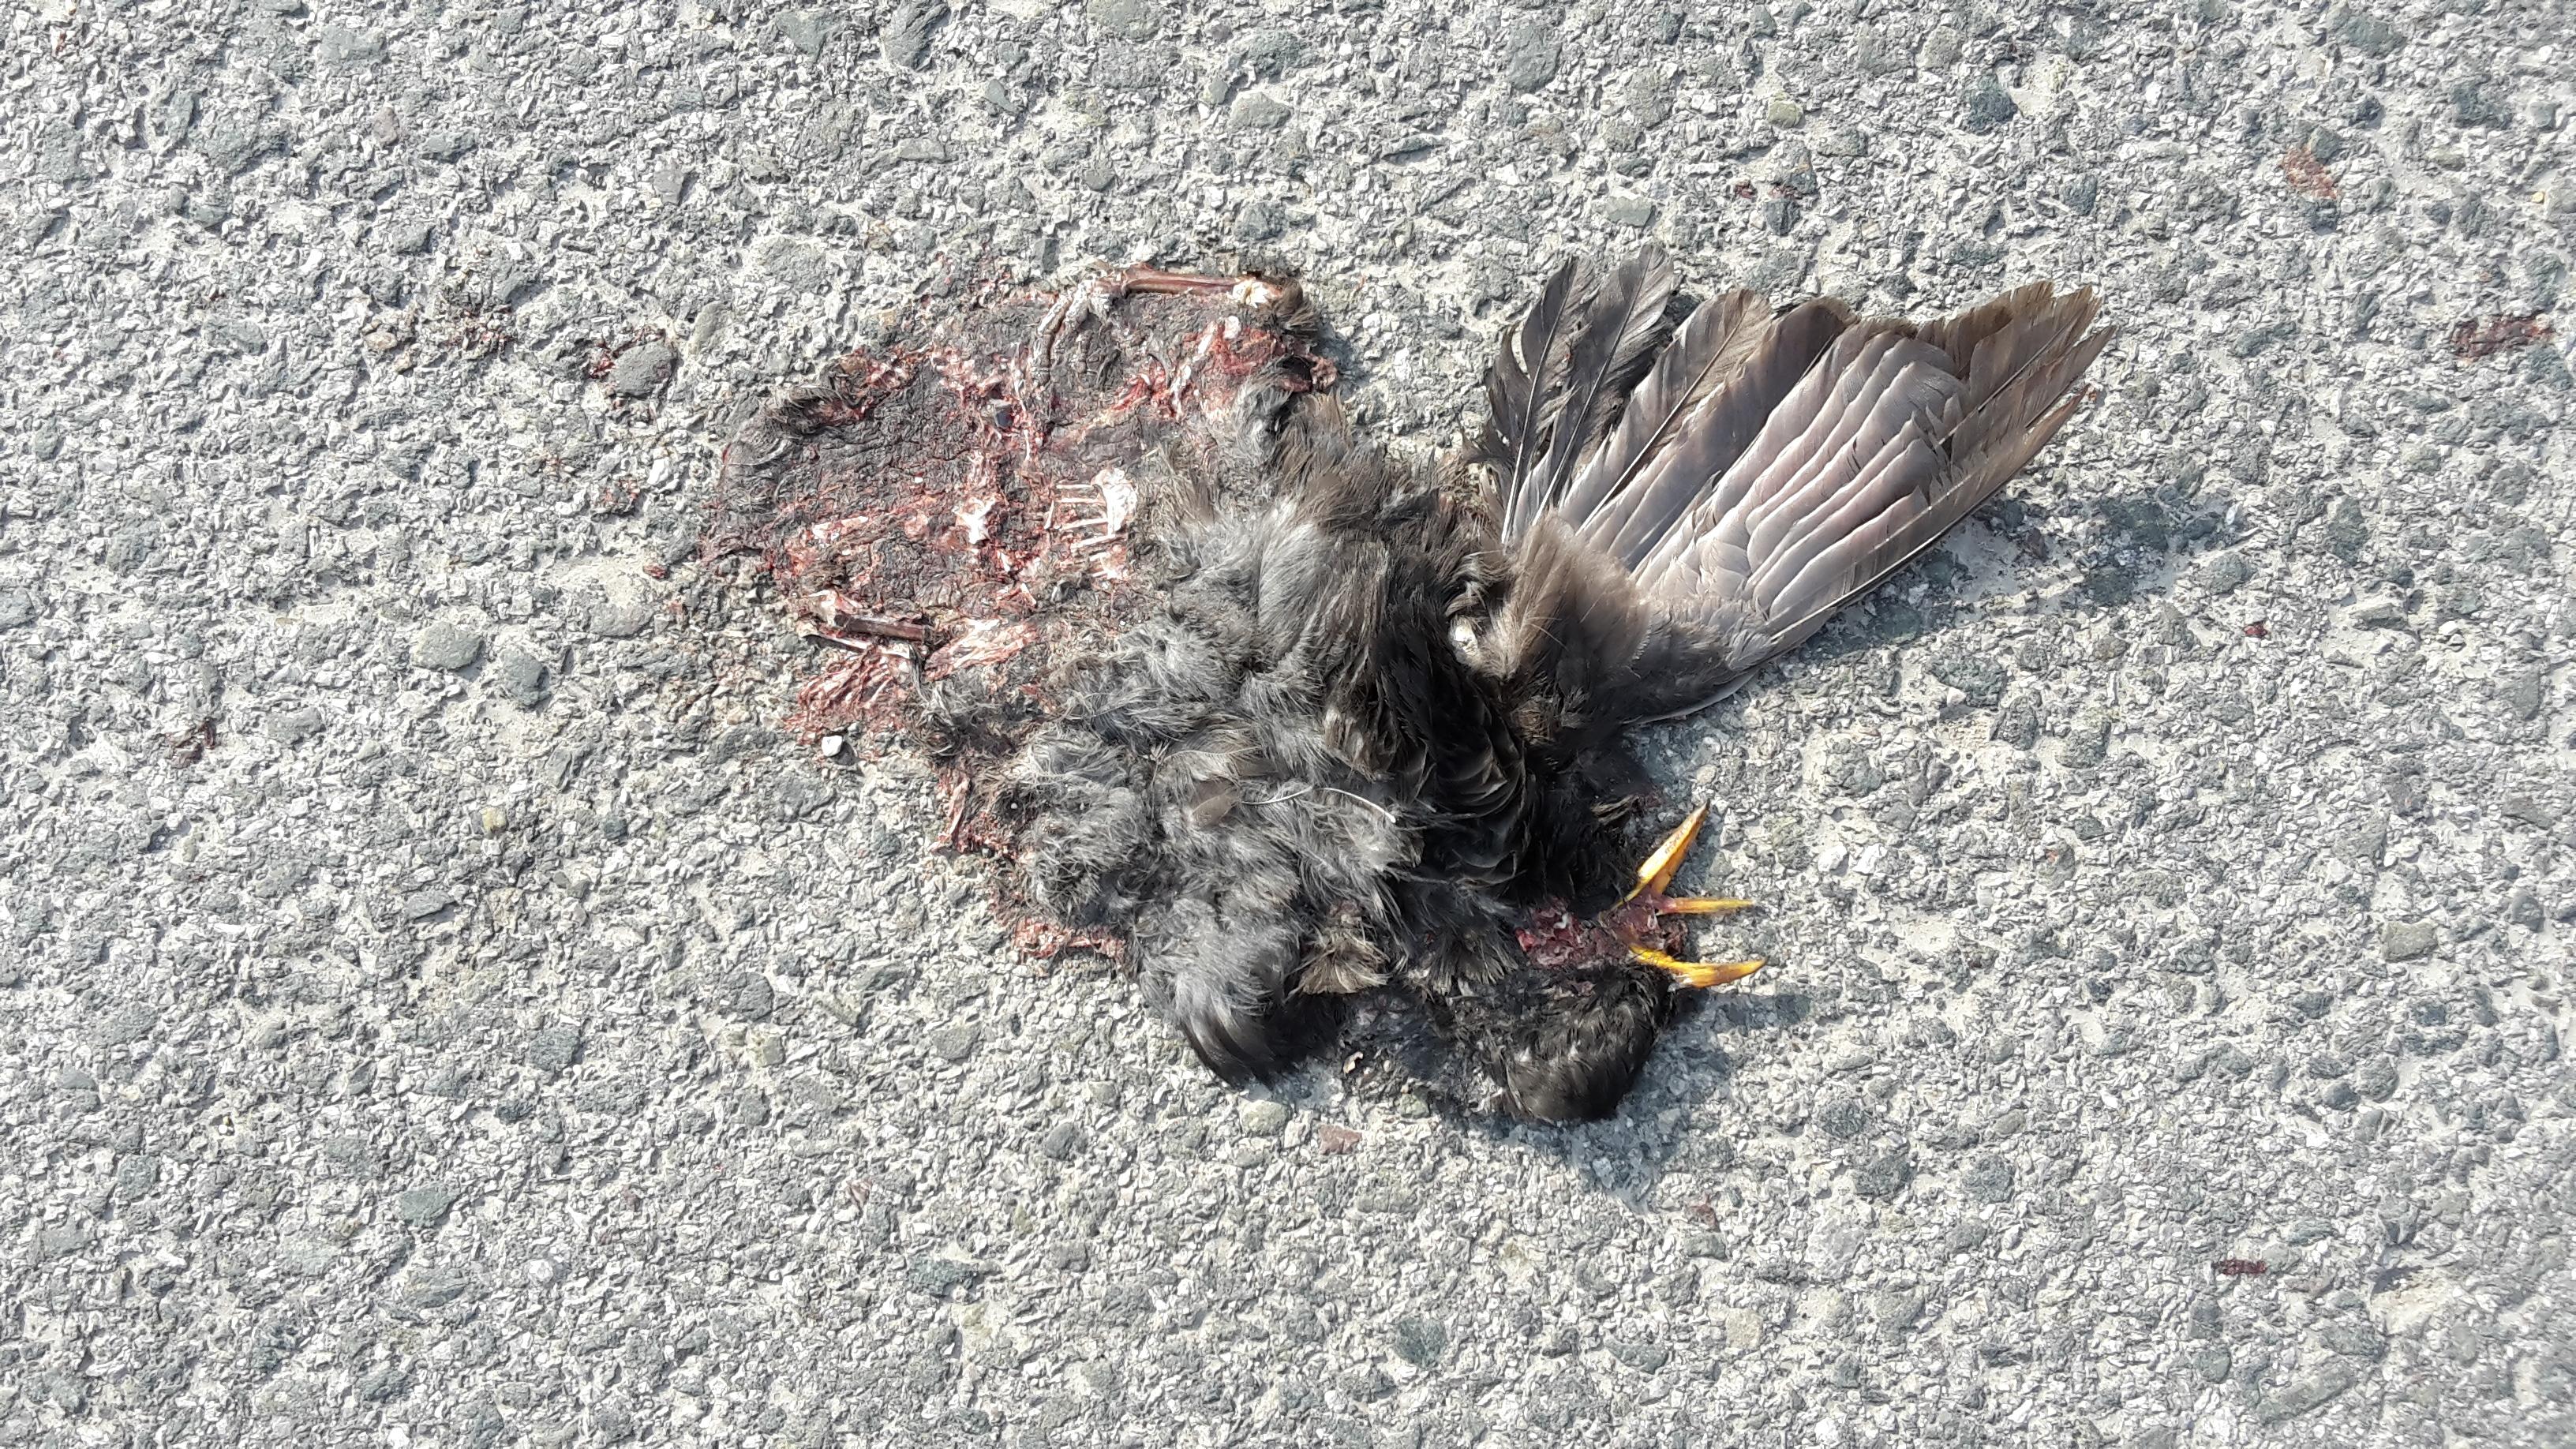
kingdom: Animalia
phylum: Chordata
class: Aves
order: Passeriformes
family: Turdidae
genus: Turdus
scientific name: Turdus merula
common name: Common blackbird
